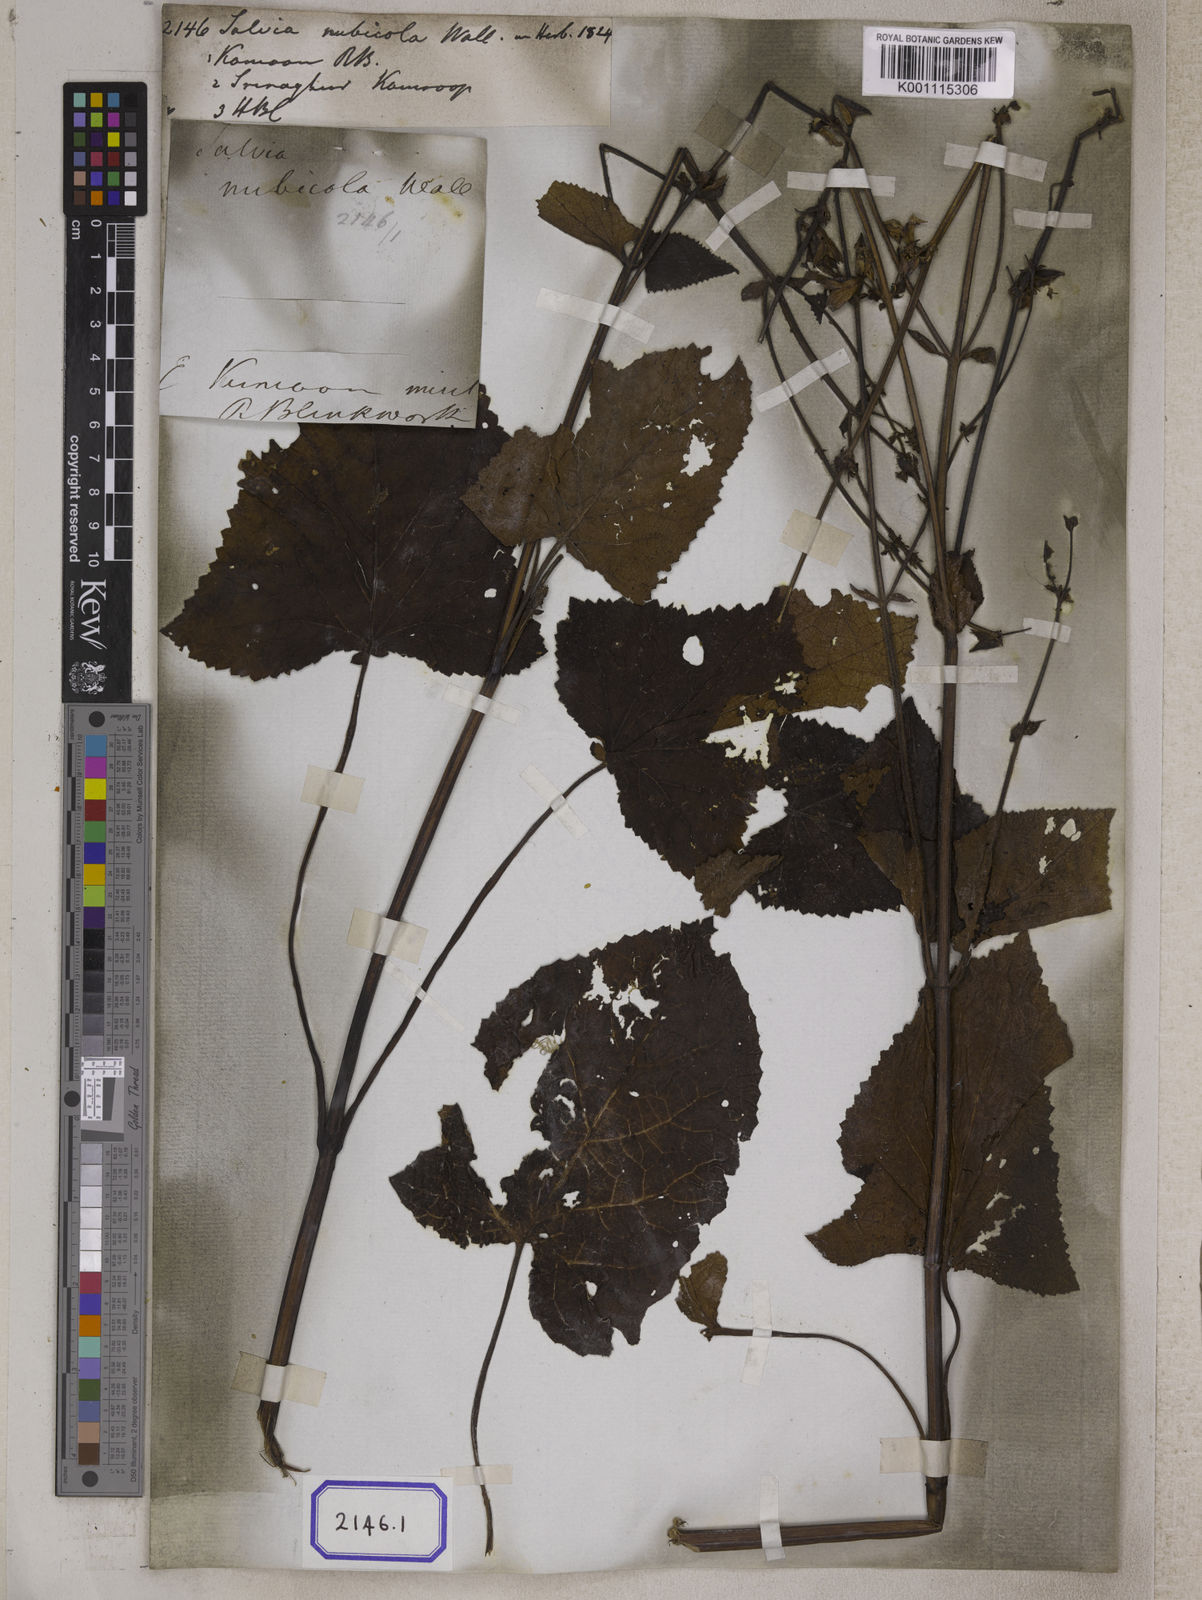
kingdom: Plantae
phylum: Tracheophyta
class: Magnoliopsida
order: Lamiales
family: Lamiaceae
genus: Salvia
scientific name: Salvia
